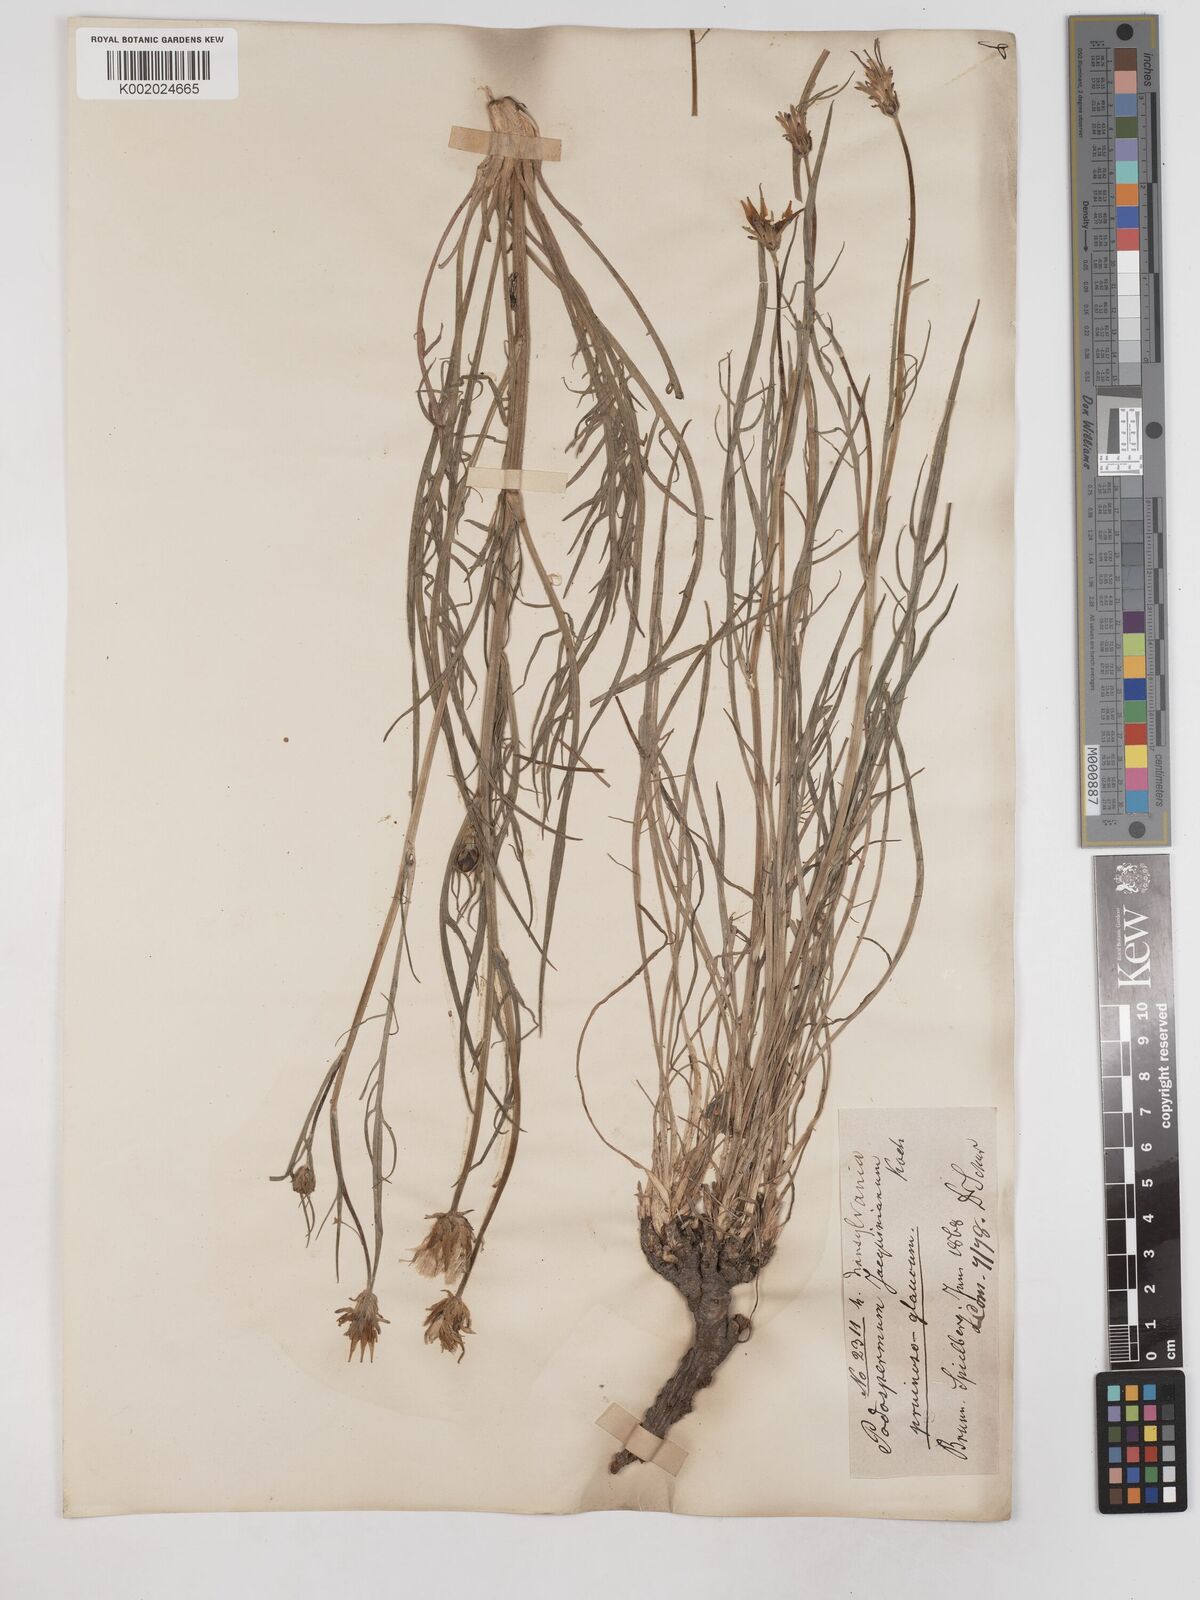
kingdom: Plantae
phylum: Tracheophyta
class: Magnoliopsida
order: Asterales
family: Asteraceae
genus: Scorzonera
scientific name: Scorzonera cana
